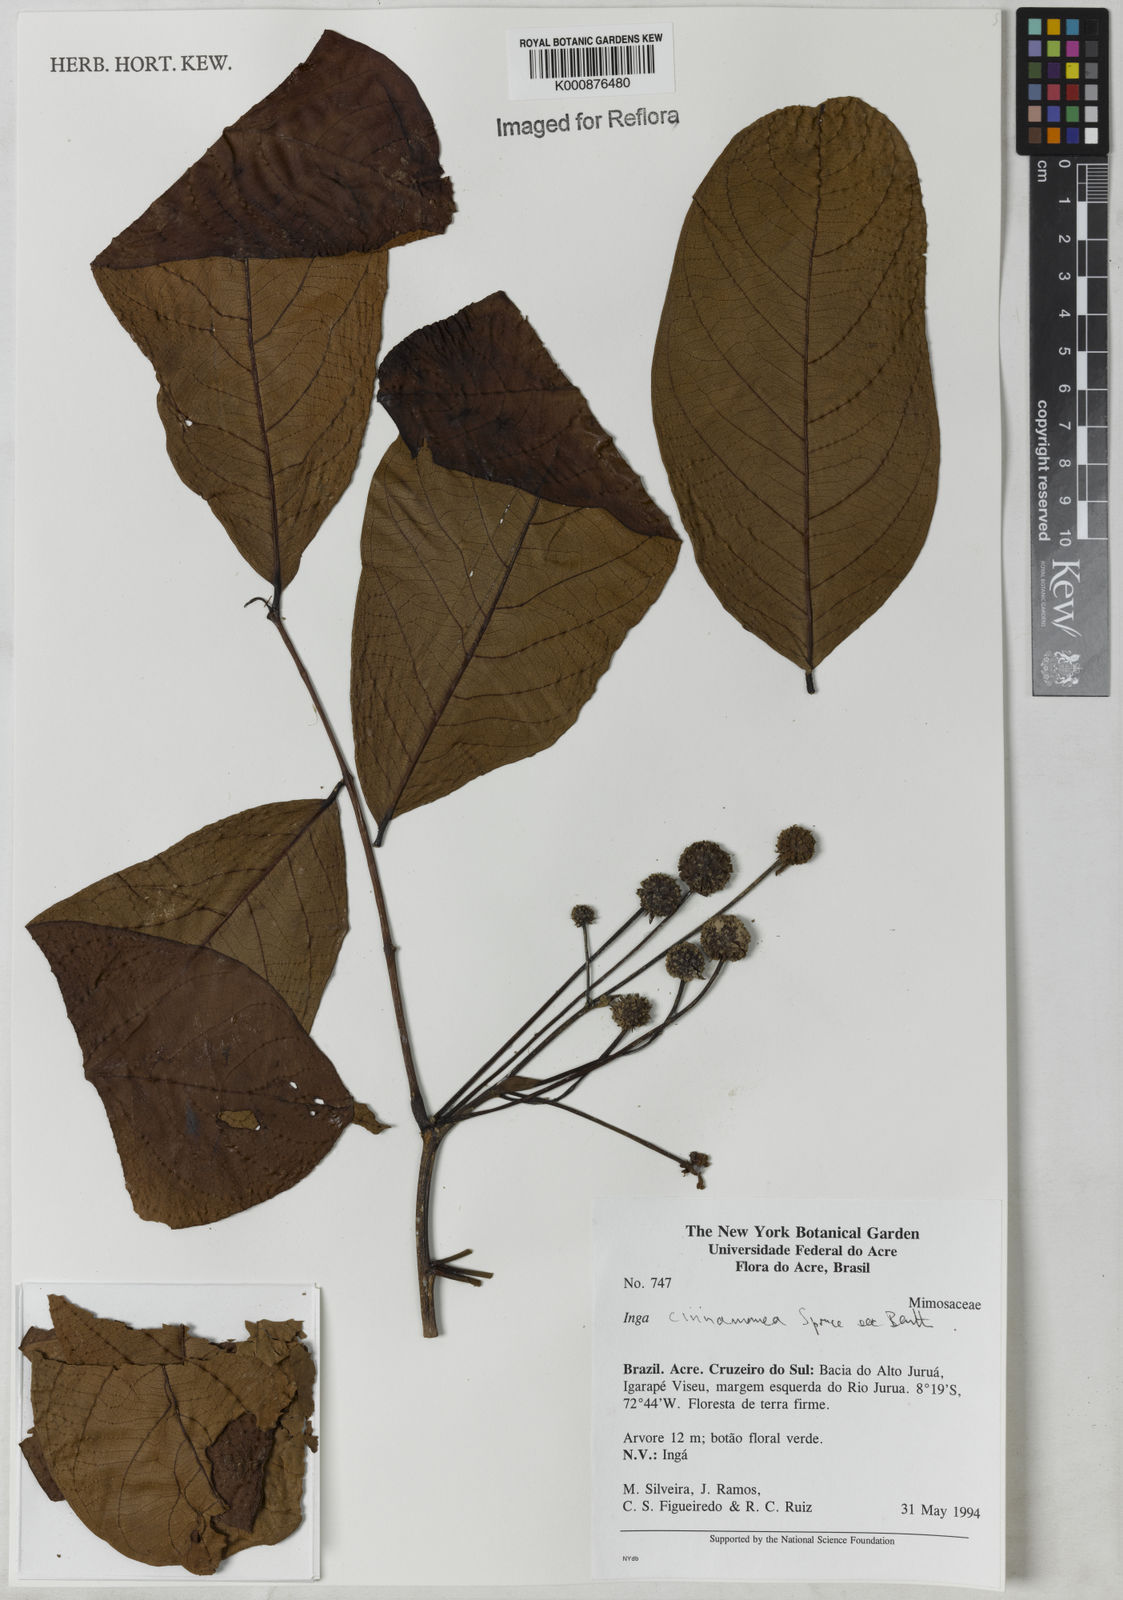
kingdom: Plantae
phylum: Tracheophyta
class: Magnoliopsida
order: Fabales
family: Fabaceae
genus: Inga
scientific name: Inga cinnamomea
